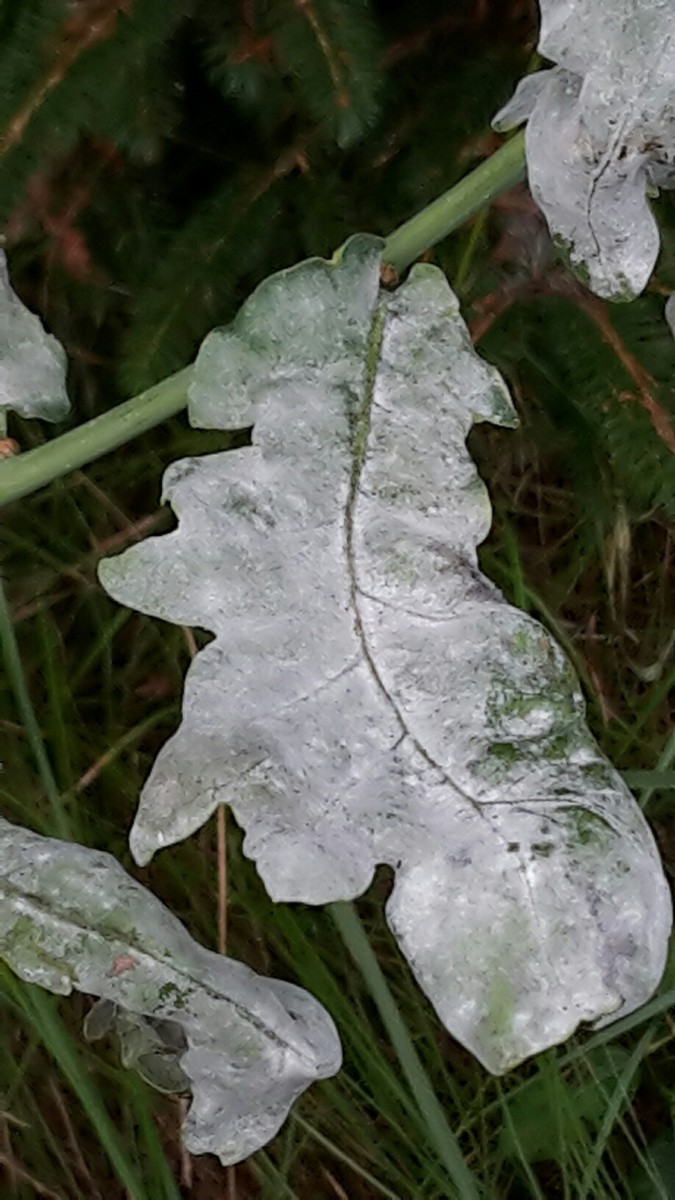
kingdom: Fungi
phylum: Ascomycota
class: Leotiomycetes
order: Helotiales
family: Erysiphaceae
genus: Erysiphe
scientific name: Erysiphe alphitoides
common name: ege-meldug
